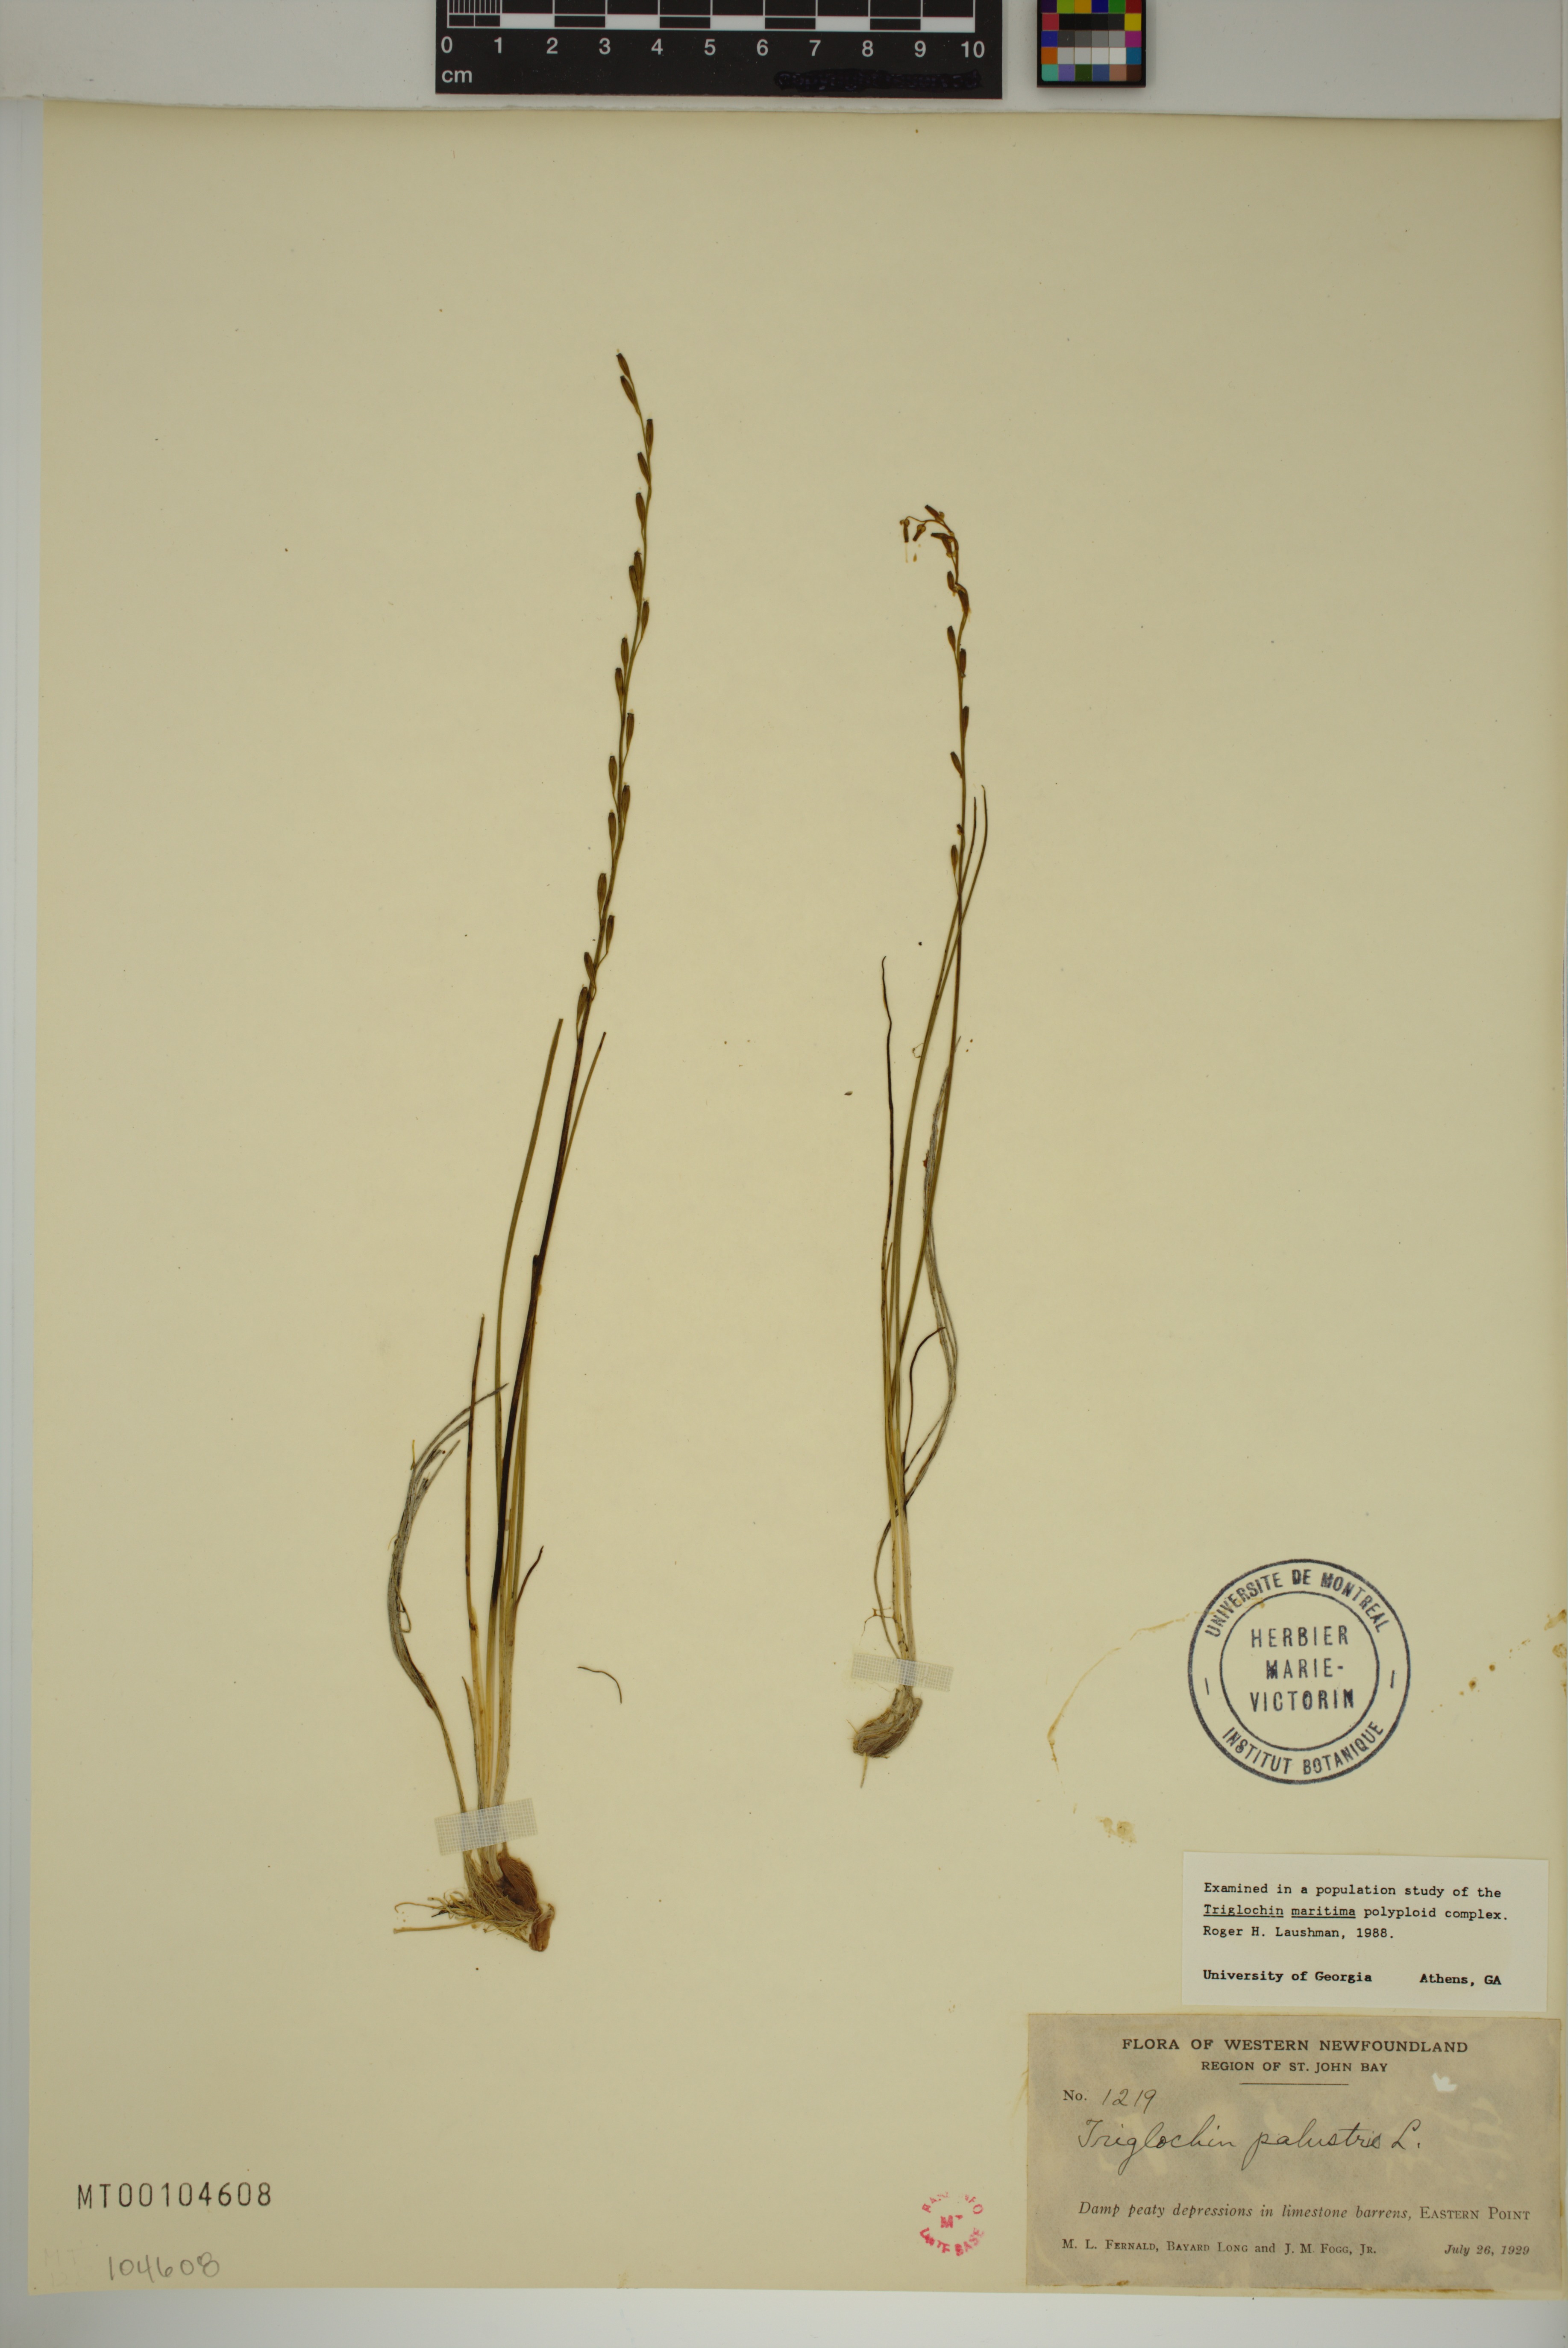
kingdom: Plantae
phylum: Tracheophyta
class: Liliopsida
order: Alismatales
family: Juncaginaceae
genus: Triglochin
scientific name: Triglochin palustris
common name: Marsh arrowgrass
